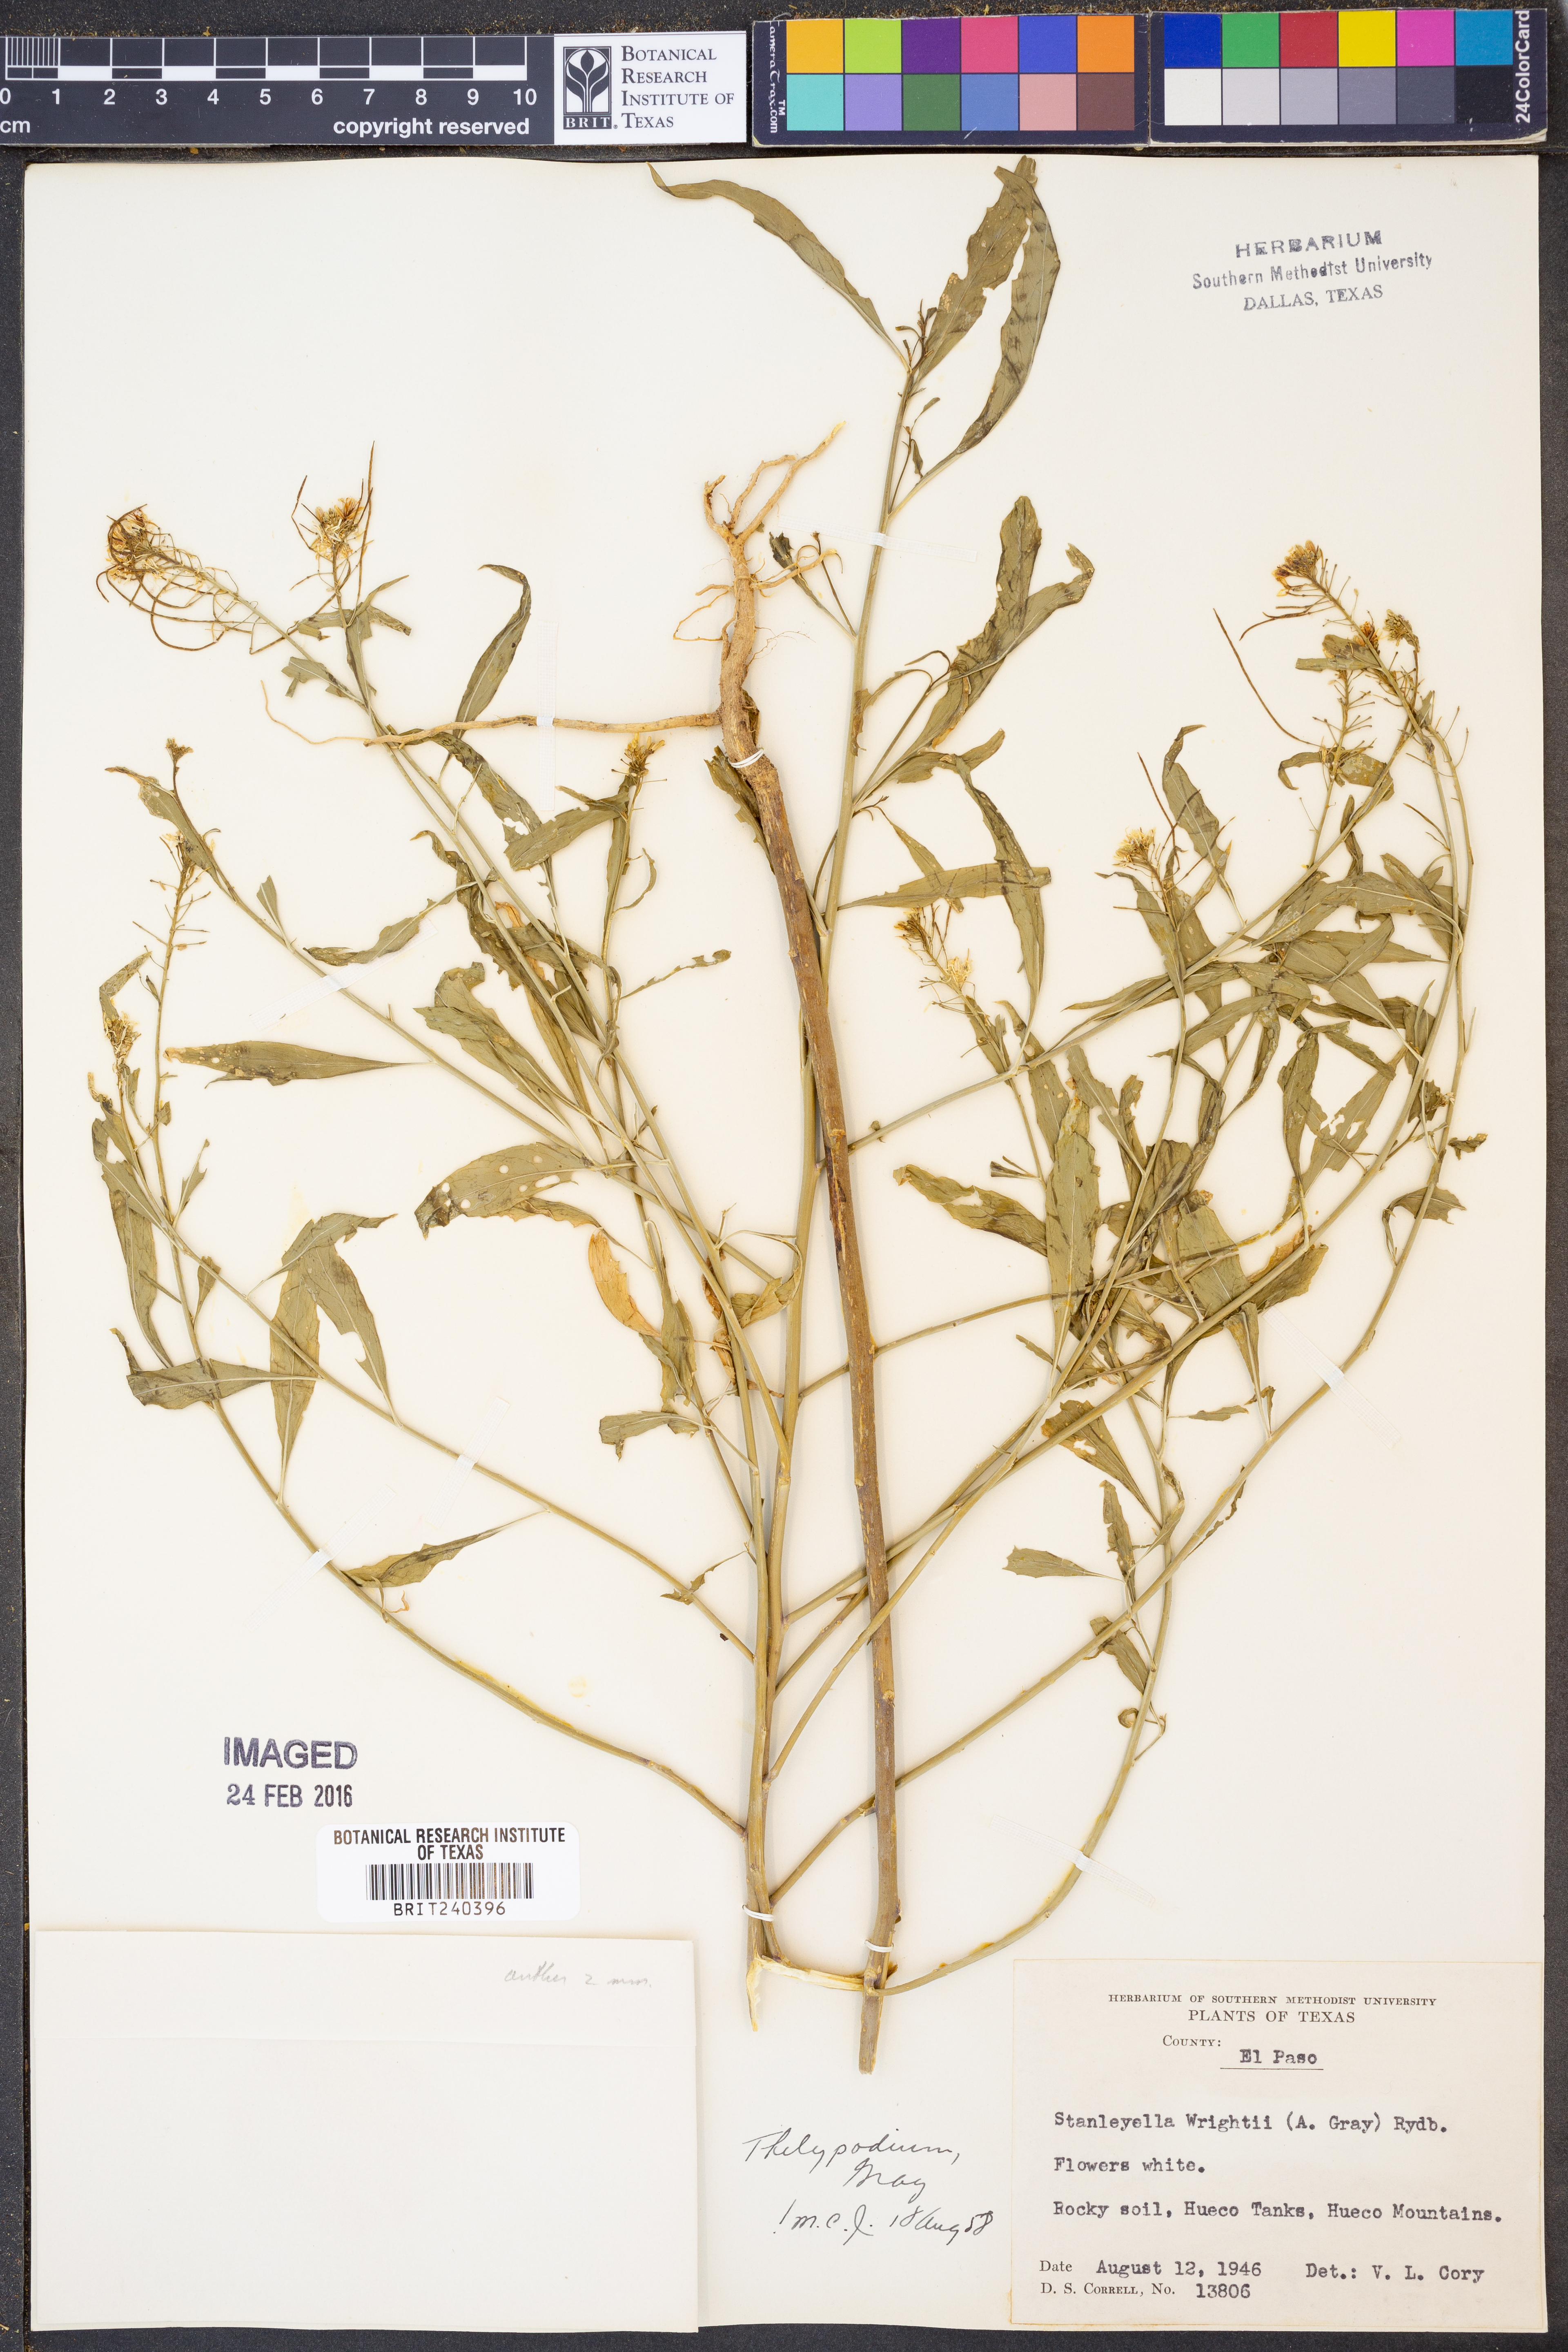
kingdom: Plantae
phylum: Tracheophyta
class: Magnoliopsida
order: Brassicales
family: Brassicaceae
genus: Thelypodium
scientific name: Thelypodium wrightii
